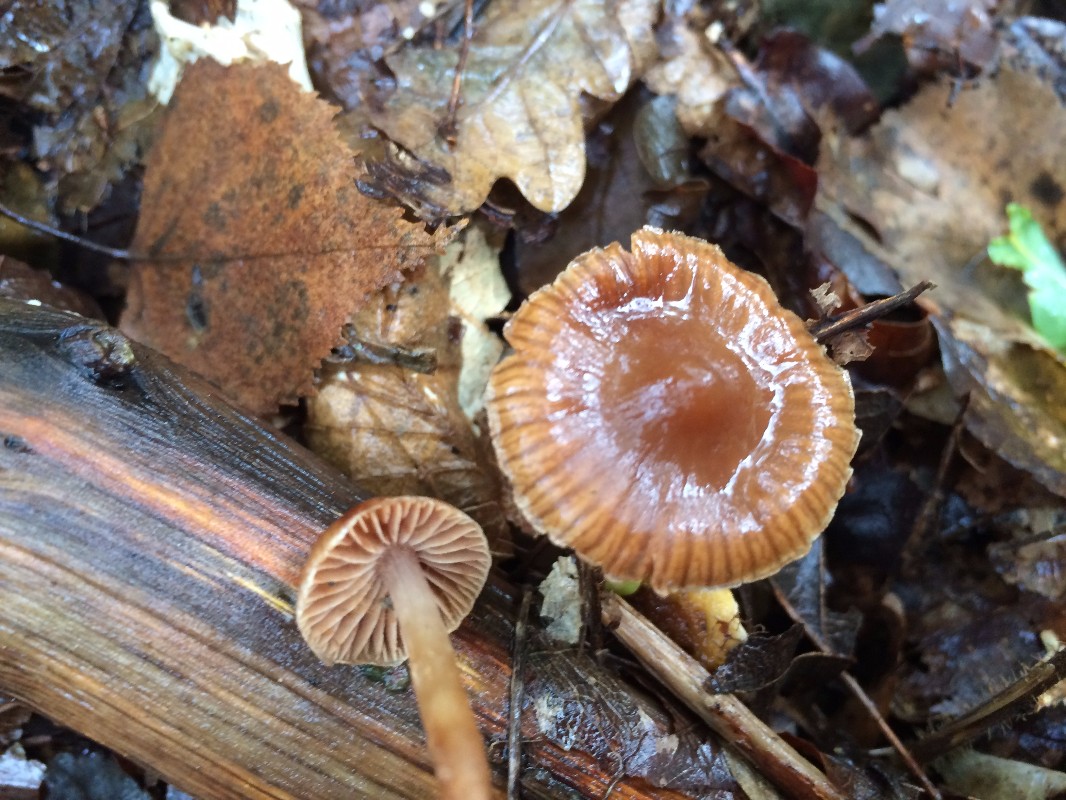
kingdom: Fungi
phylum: Basidiomycota
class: Agaricomycetes
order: Agaricales
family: Hymenogastraceae
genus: Naucoria
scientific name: Naucoria scolecina
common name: mørk elle-knaphat
